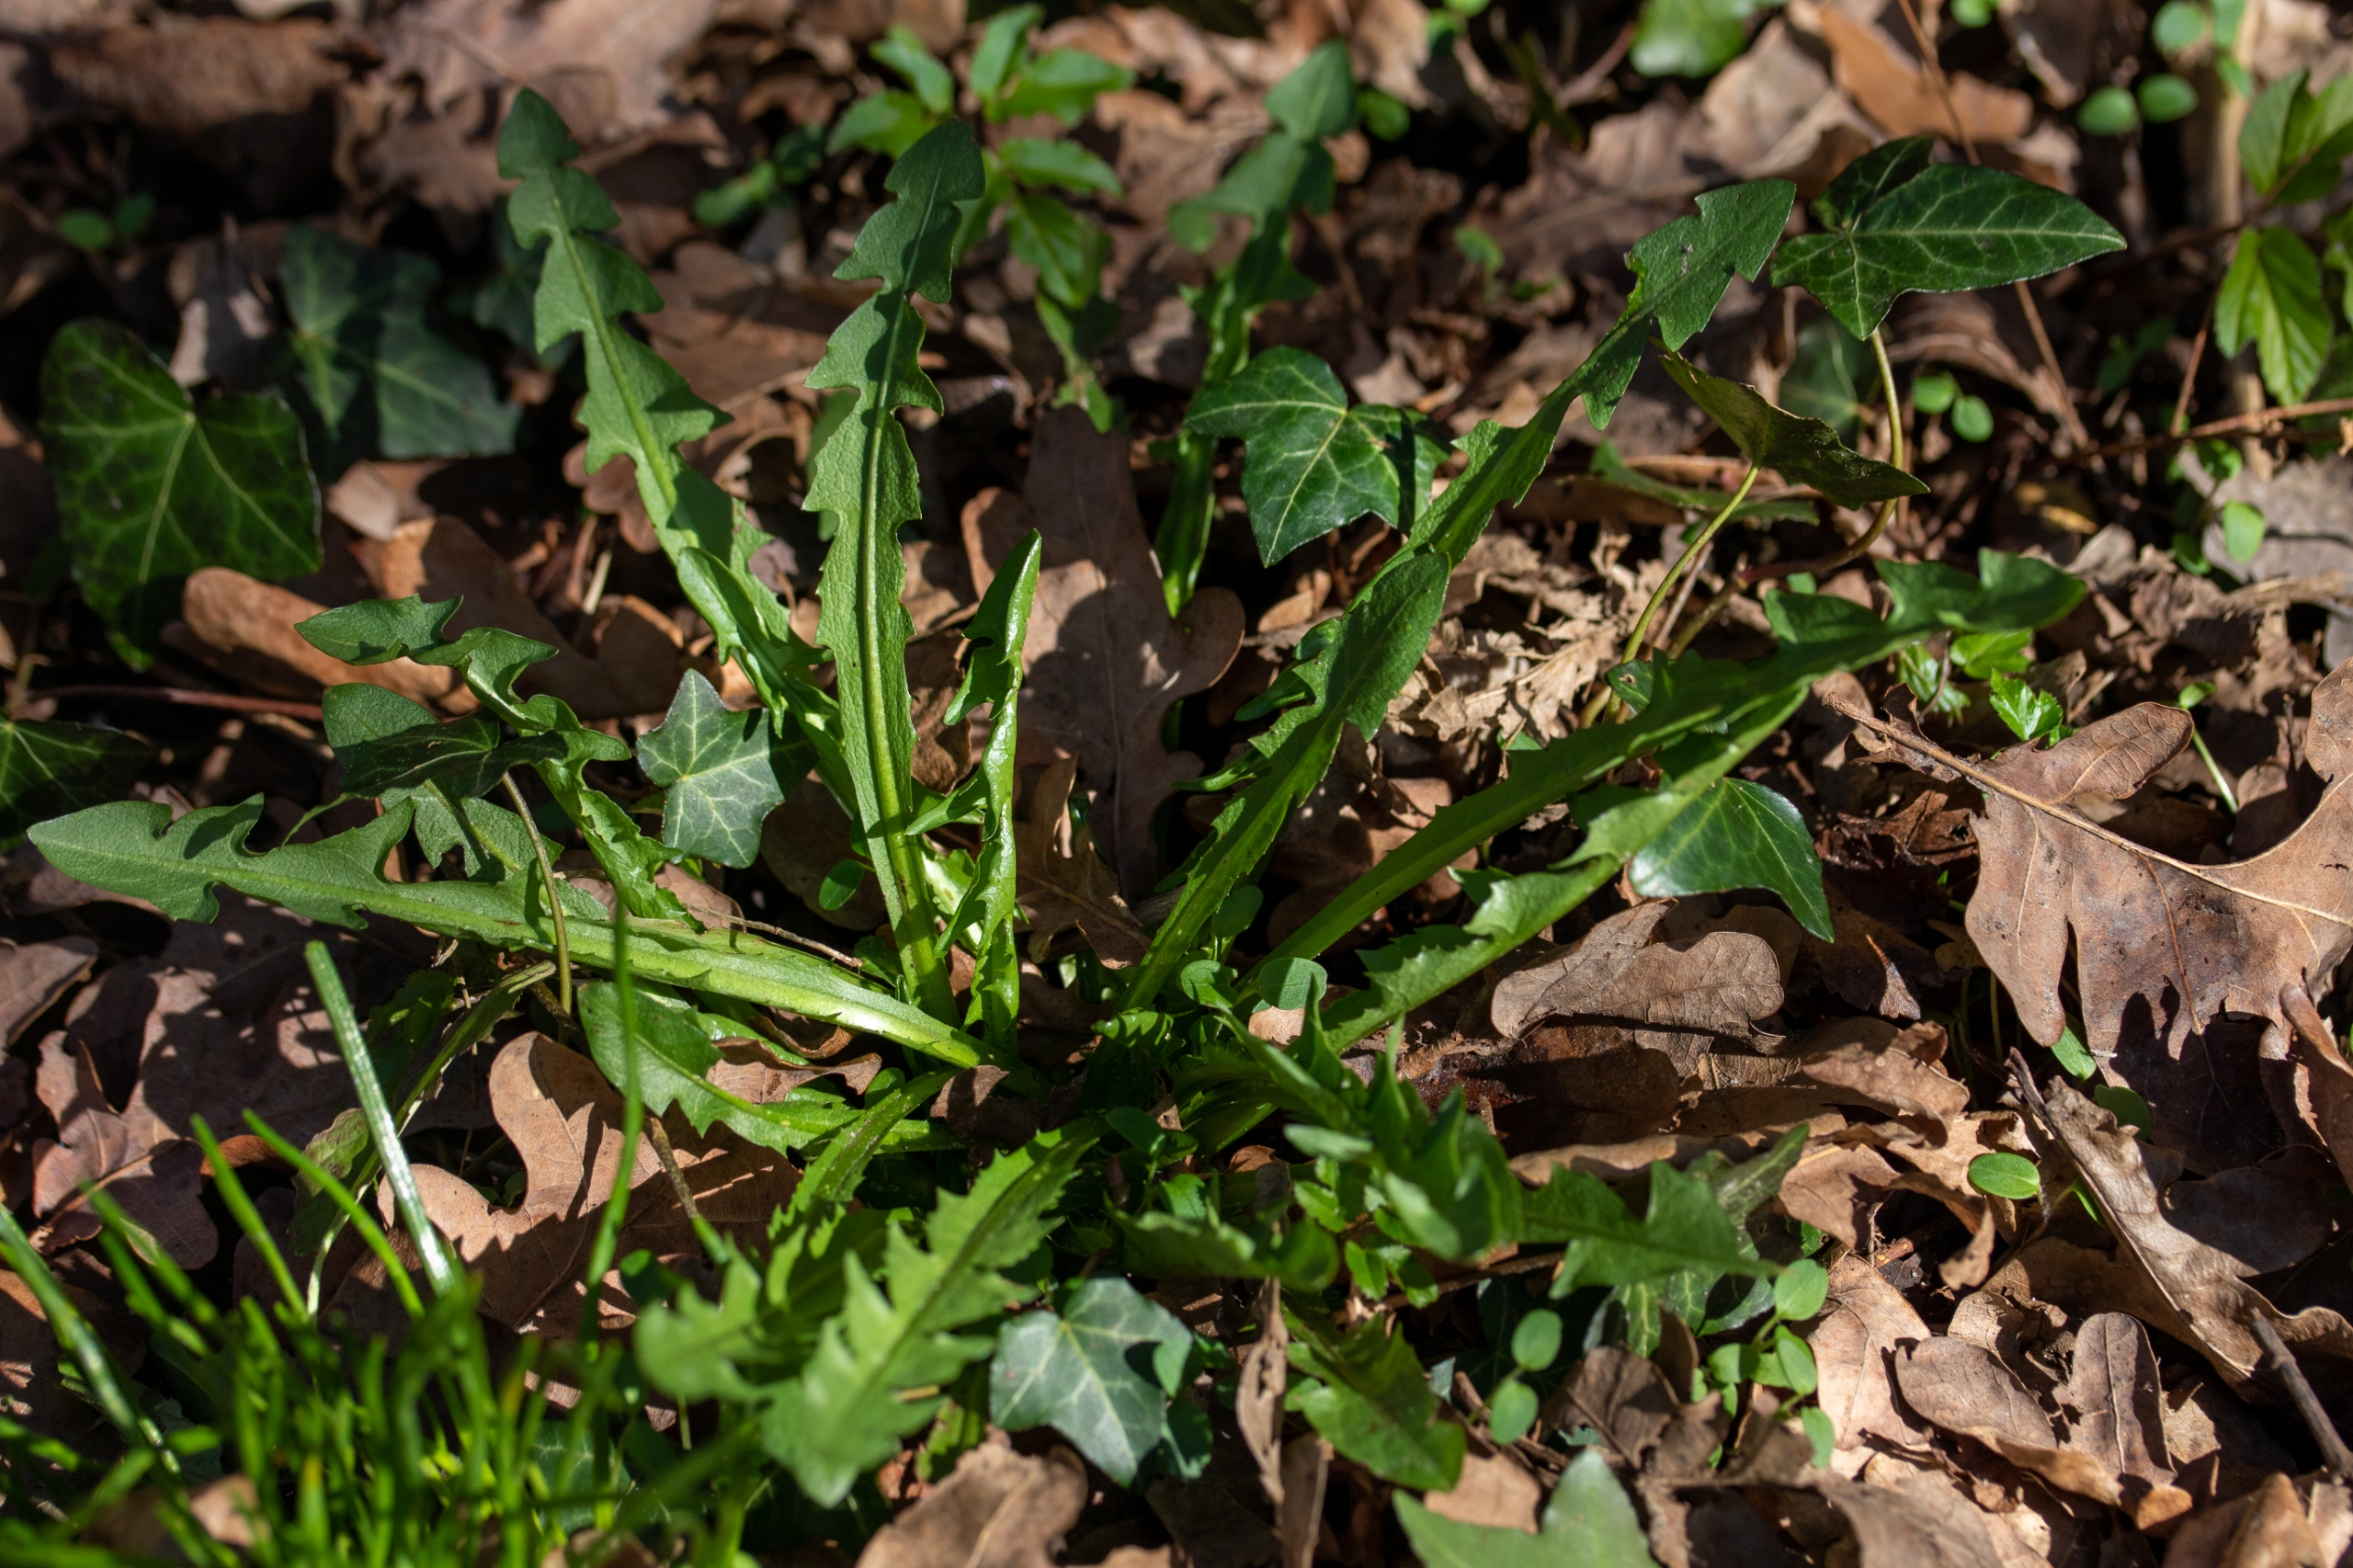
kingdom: Plantae
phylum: Tracheophyta
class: Magnoliopsida
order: Asterales
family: Asteraceae
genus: Taraxacum
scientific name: Taraxacum
